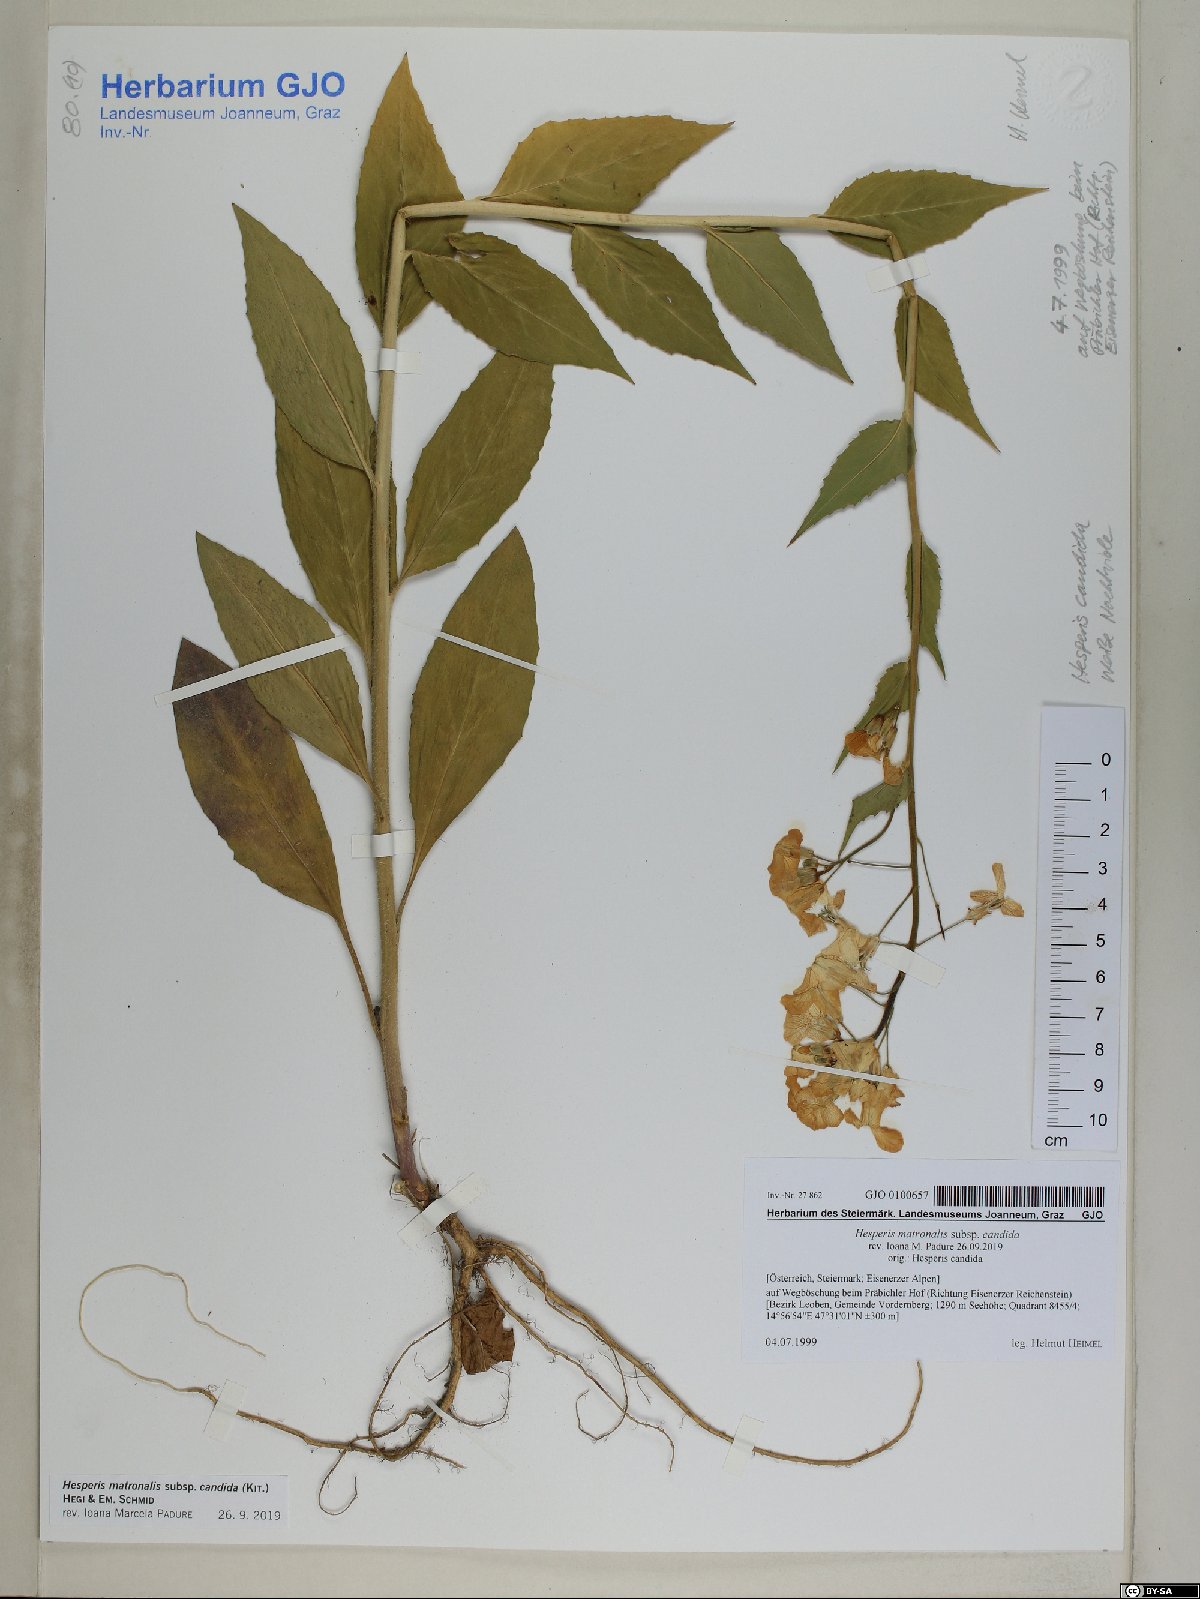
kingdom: Plantae
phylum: Tracheophyta
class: Magnoliopsida
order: Brassicales
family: Brassicaceae
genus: Hesperis
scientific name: Hesperis matronalis
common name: Dame's-violet
